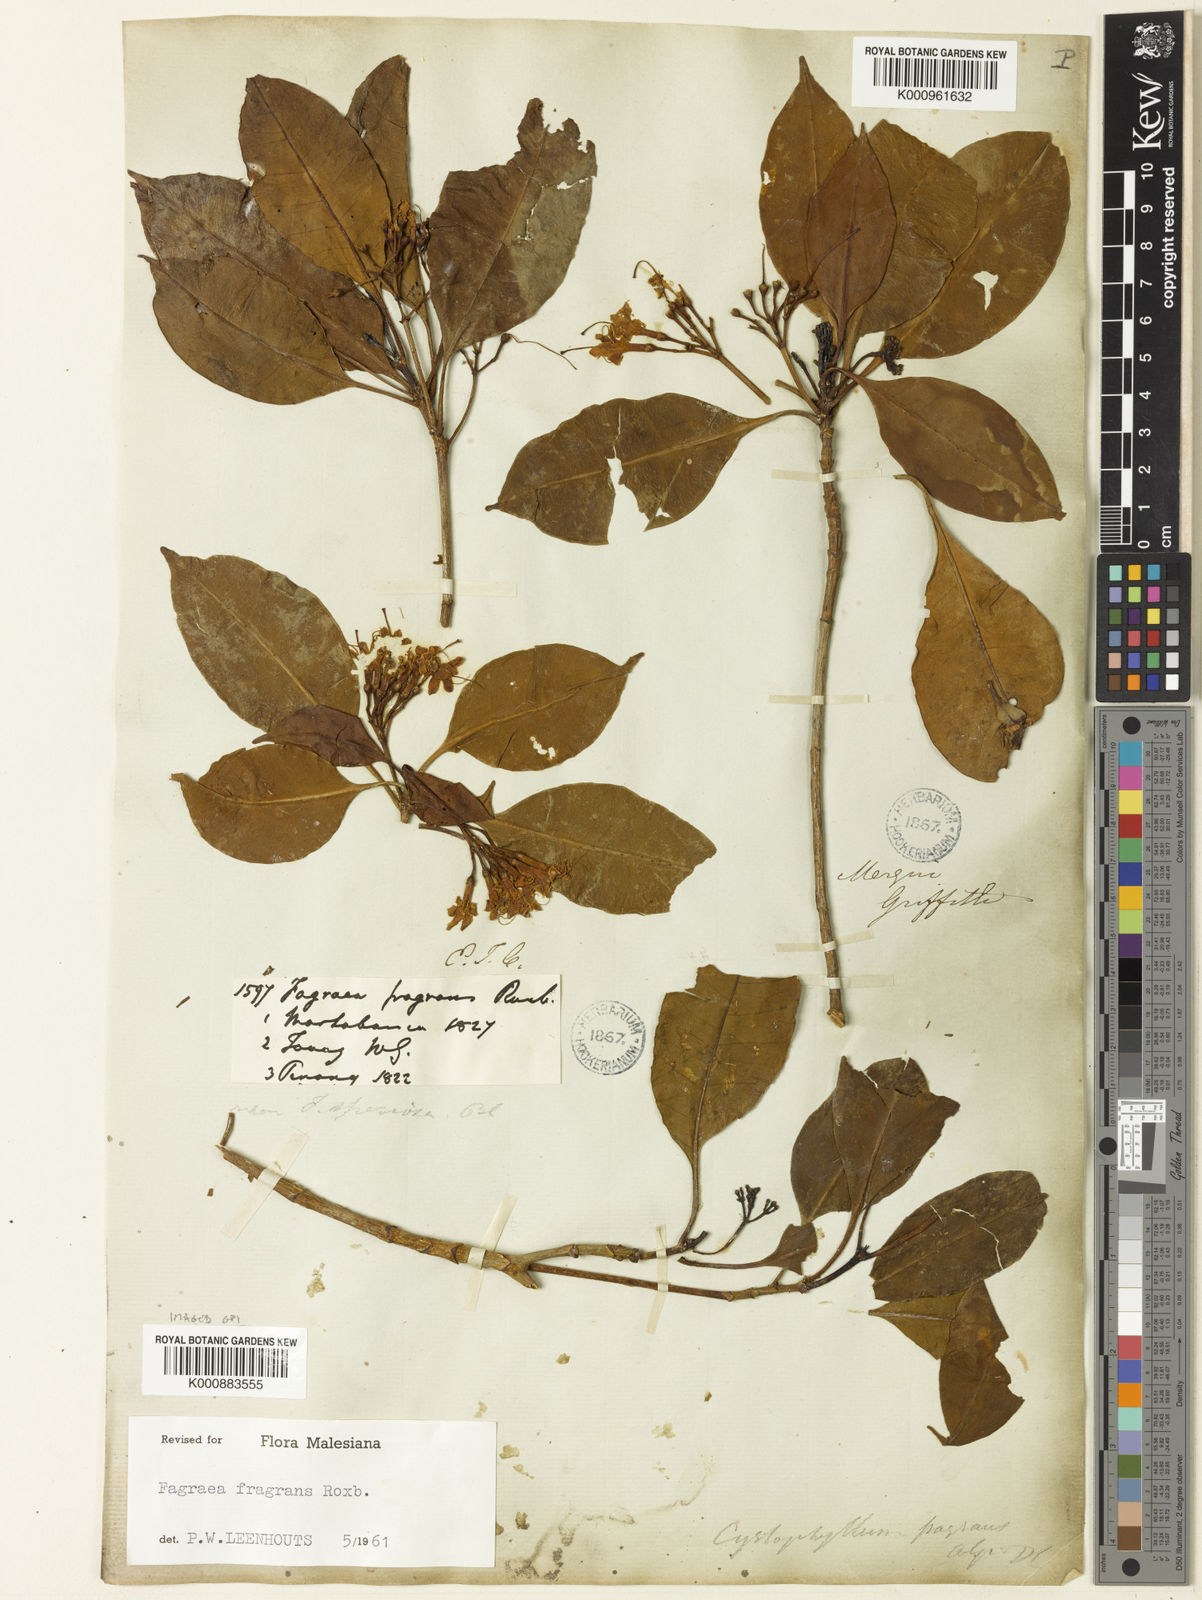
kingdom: Plantae
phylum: Tracheophyta
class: Magnoliopsida
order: Gentianales
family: Gentianaceae
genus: Cyrtophyllum
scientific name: Cyrtophyllum fragrans
